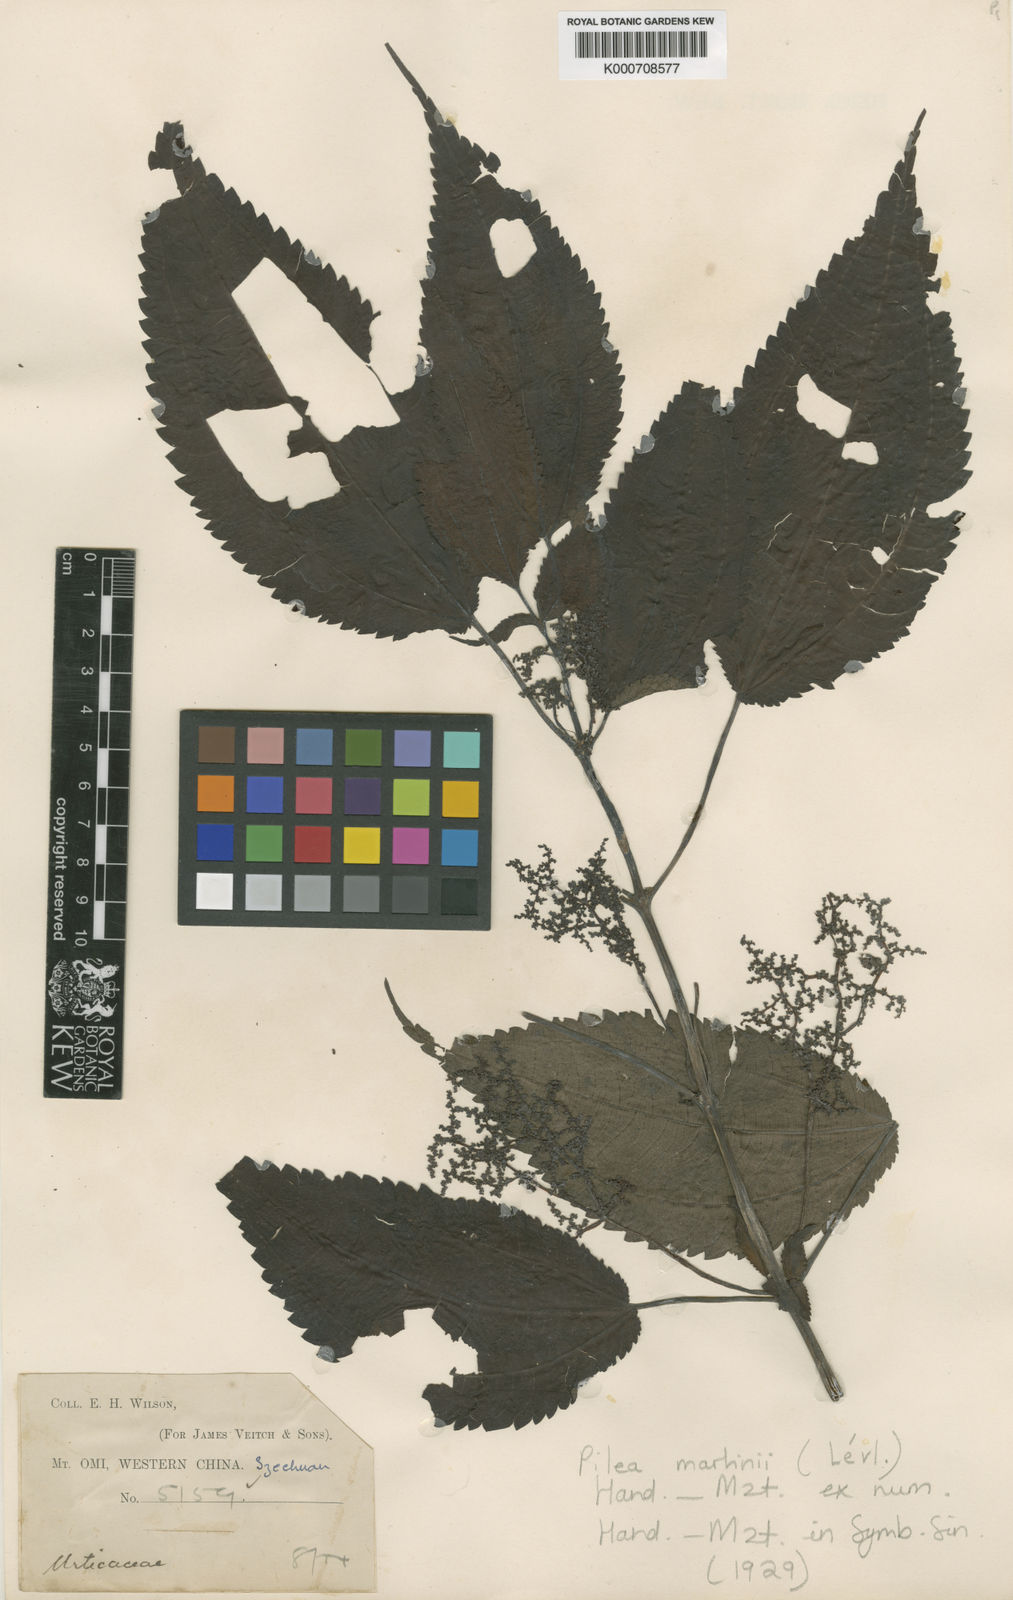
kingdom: Plantae
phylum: Tracheophyta
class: Magnoliopsida
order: Rosales
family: Urticaceae
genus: Pilea
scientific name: Pilea martini
